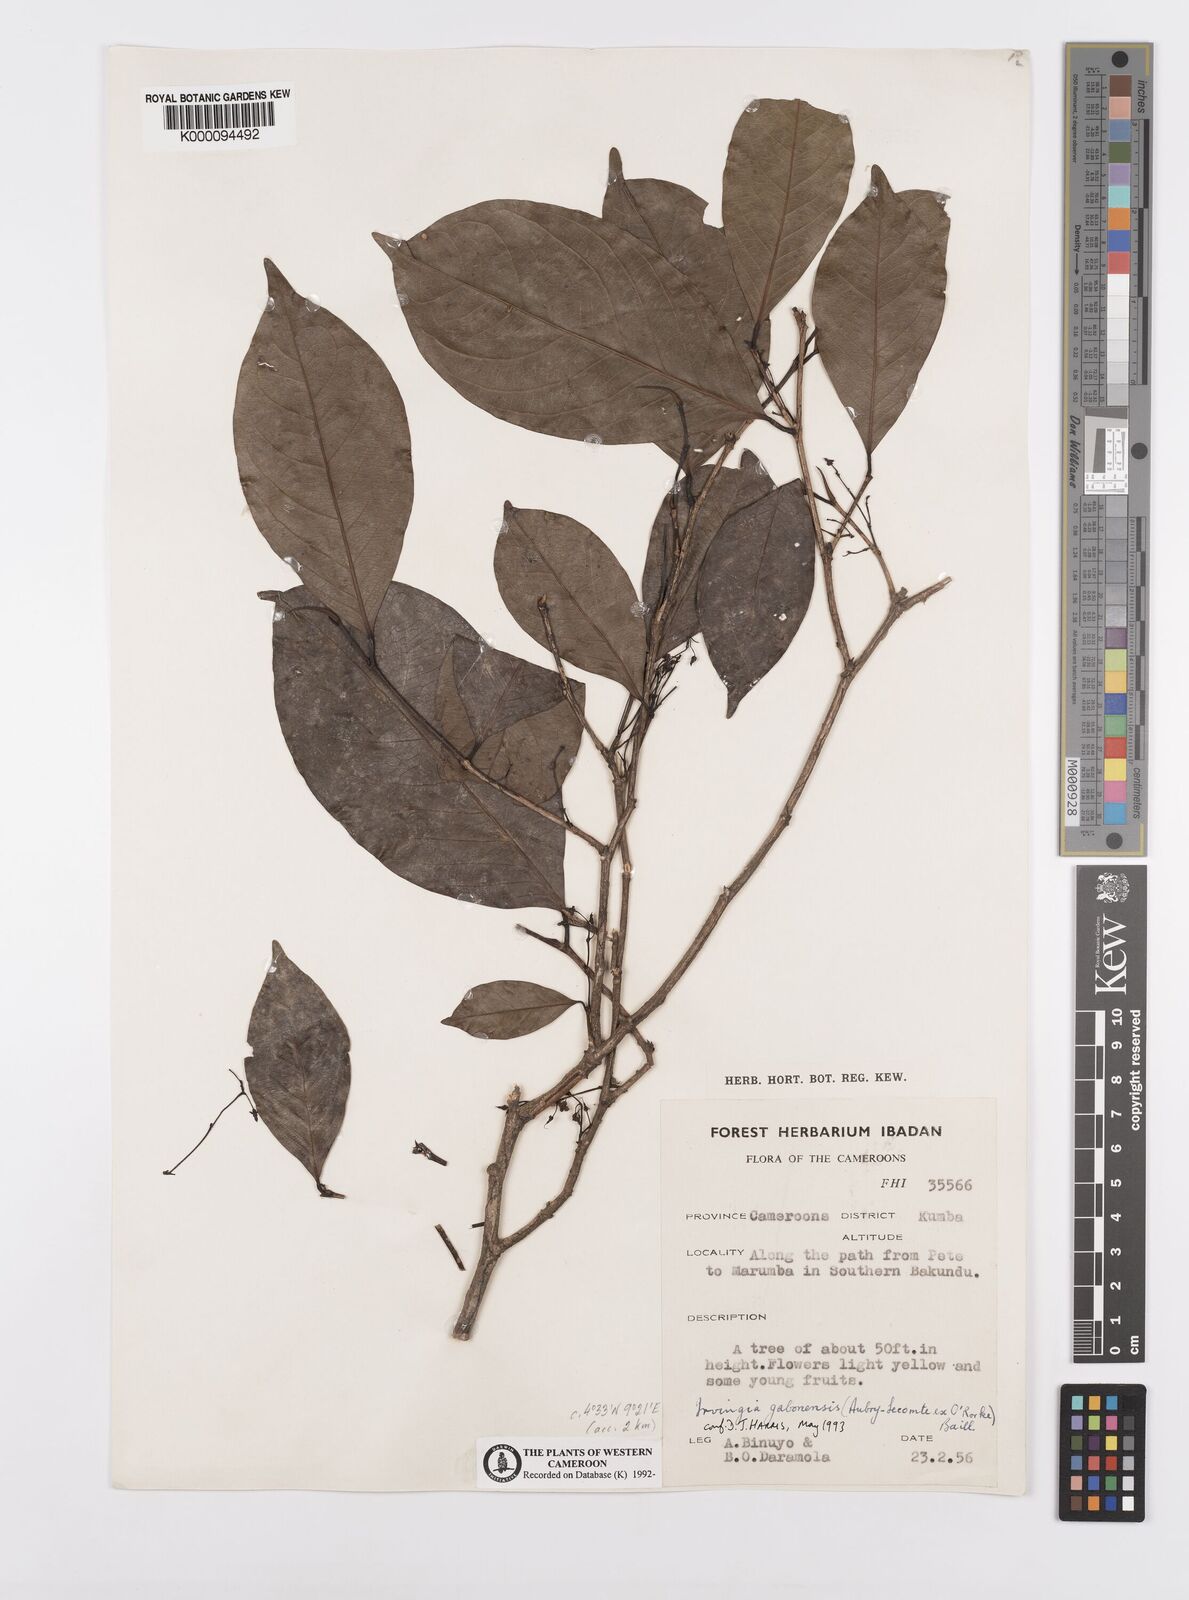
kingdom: Plantae
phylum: Tracheophyta
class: Magnoliopsida
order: Malpighiales
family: Irvingiaceae
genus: Irvingia
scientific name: Irvingia gabonensis
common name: Rainy season bush-mango
